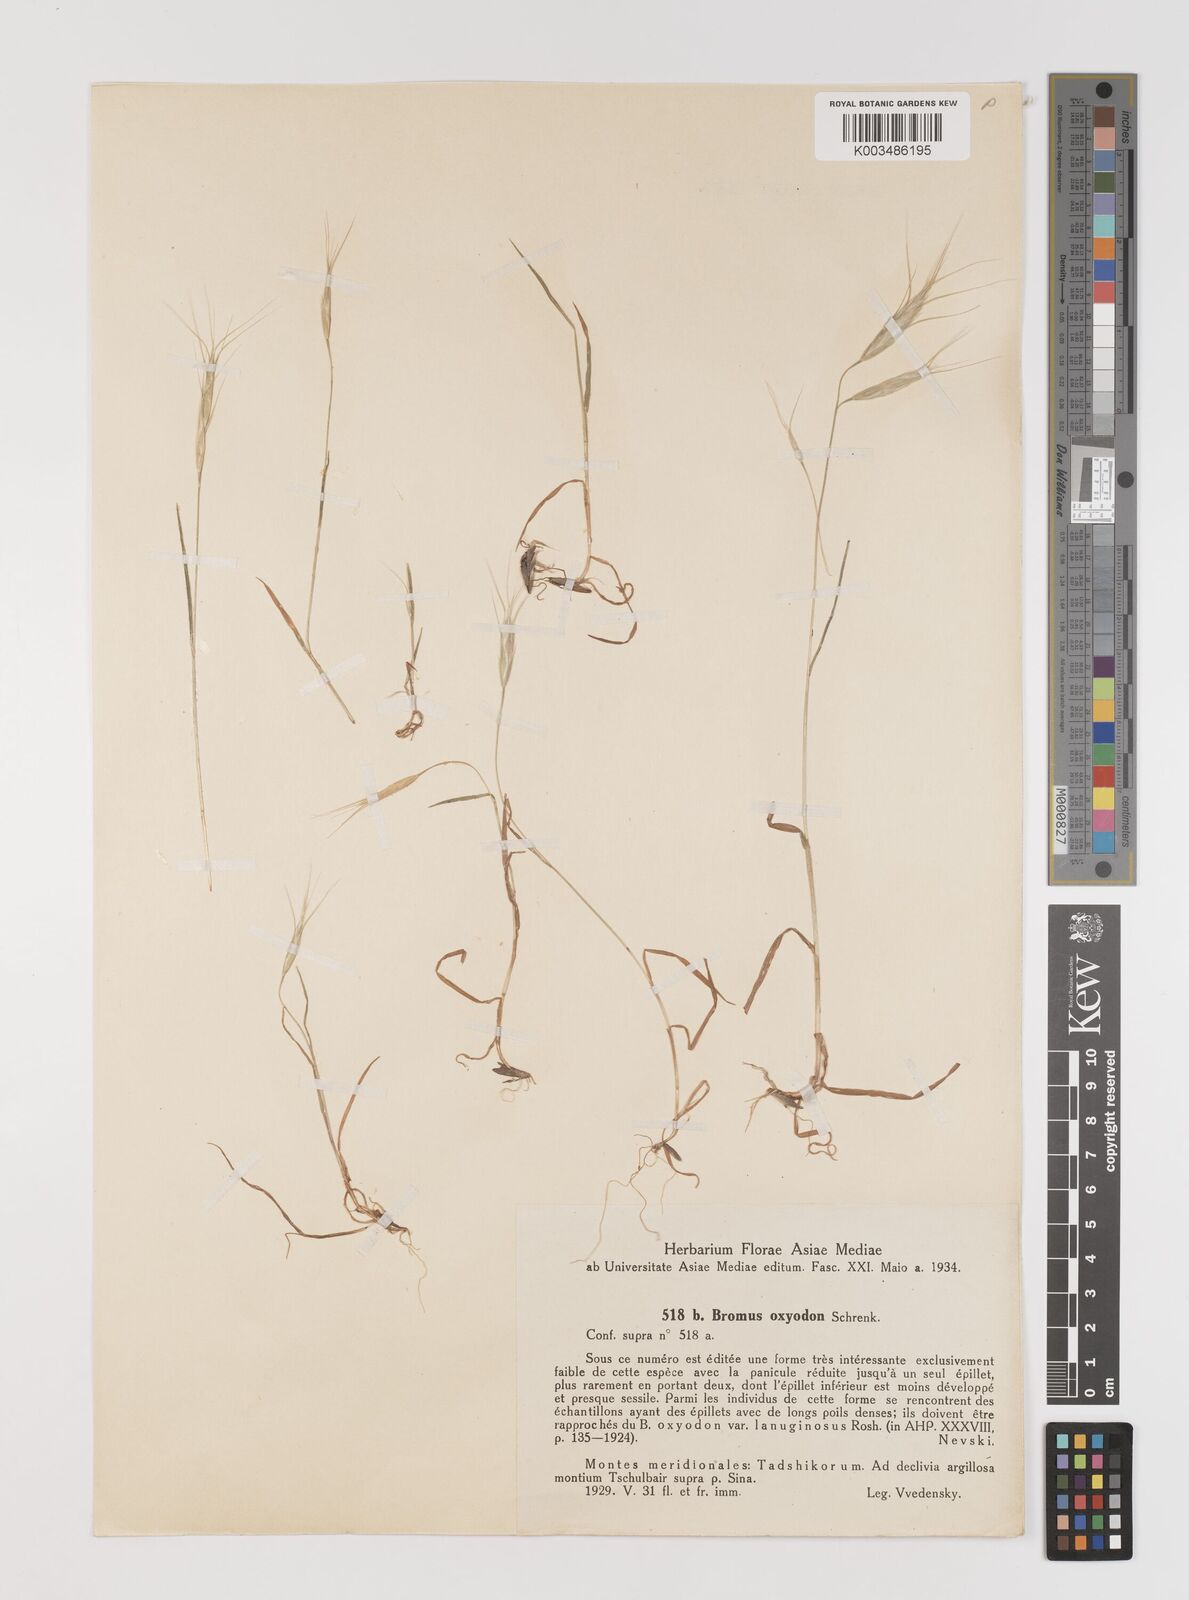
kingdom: Plantae
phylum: Tracheophyta
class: Liliopsida
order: Poales
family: Poaceae
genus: Bromus
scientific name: Bromus oxyodon
